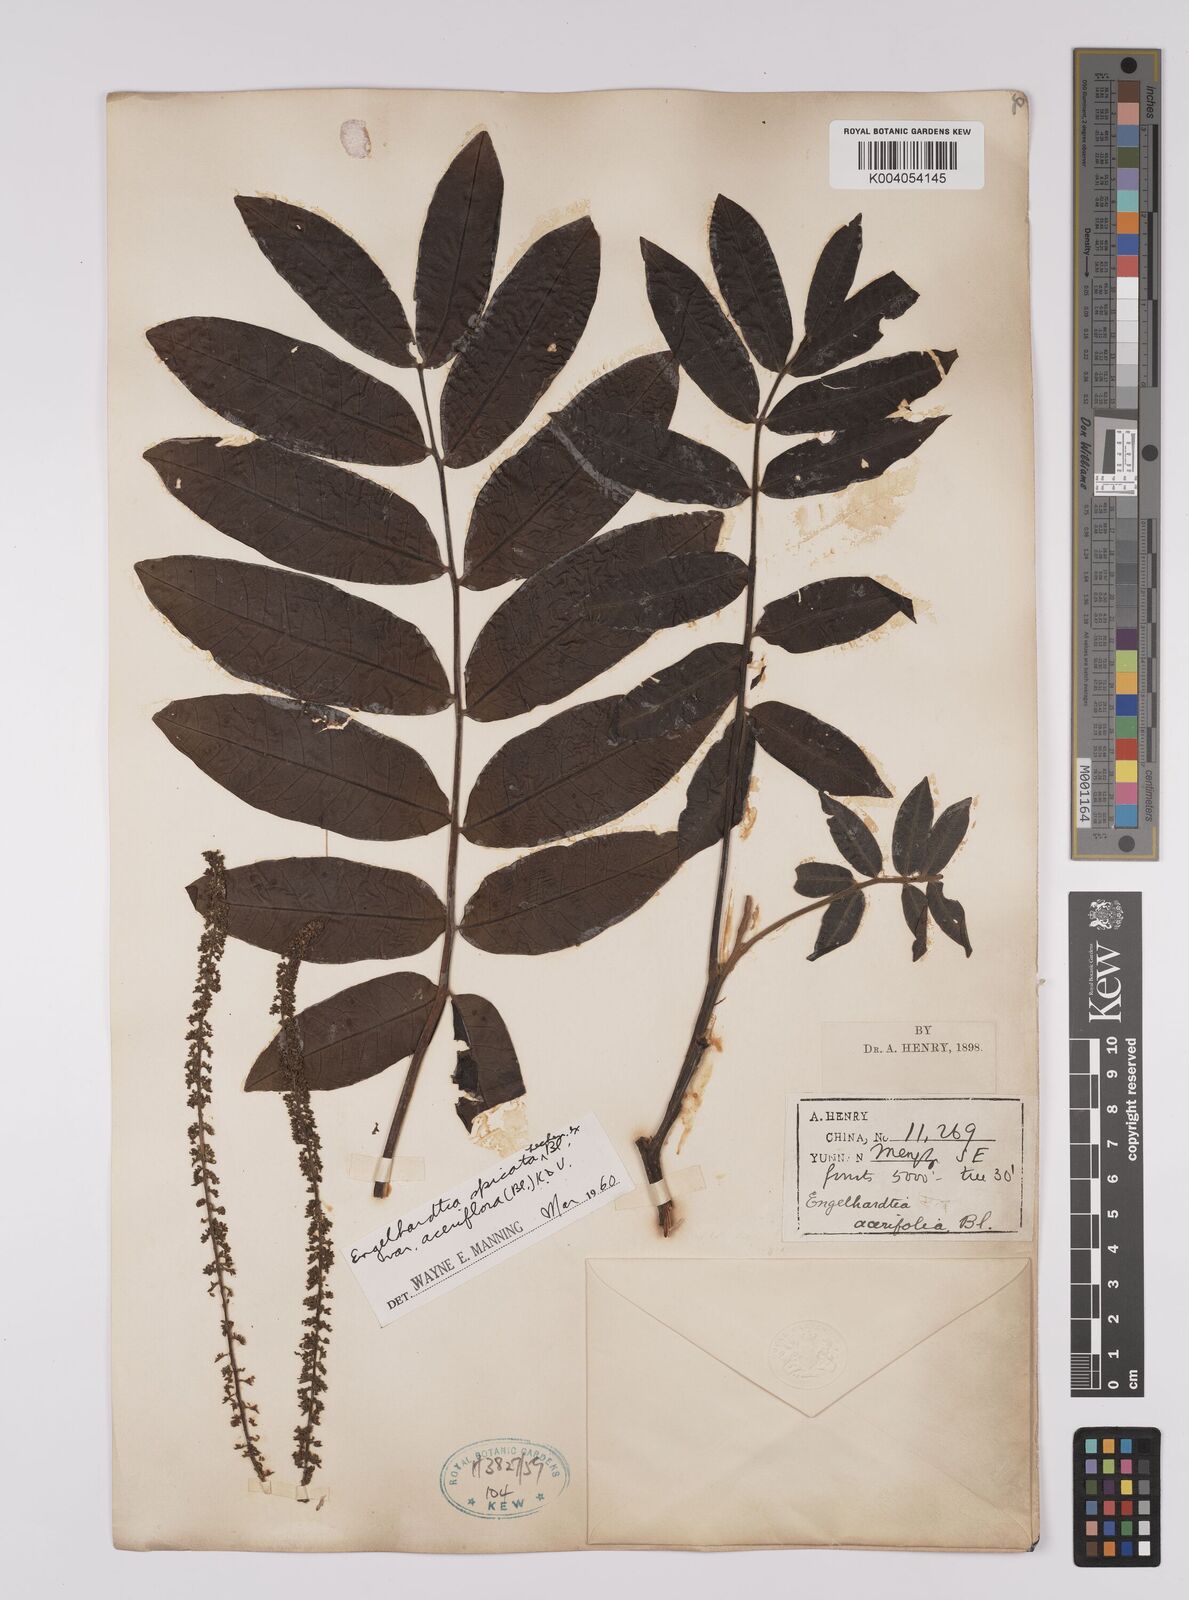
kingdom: Plantae
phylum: Tracheophyta
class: Magnoliopsida
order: Fagales
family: Juglandaceae
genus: Engelhardia
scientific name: Engelhardia spicata
